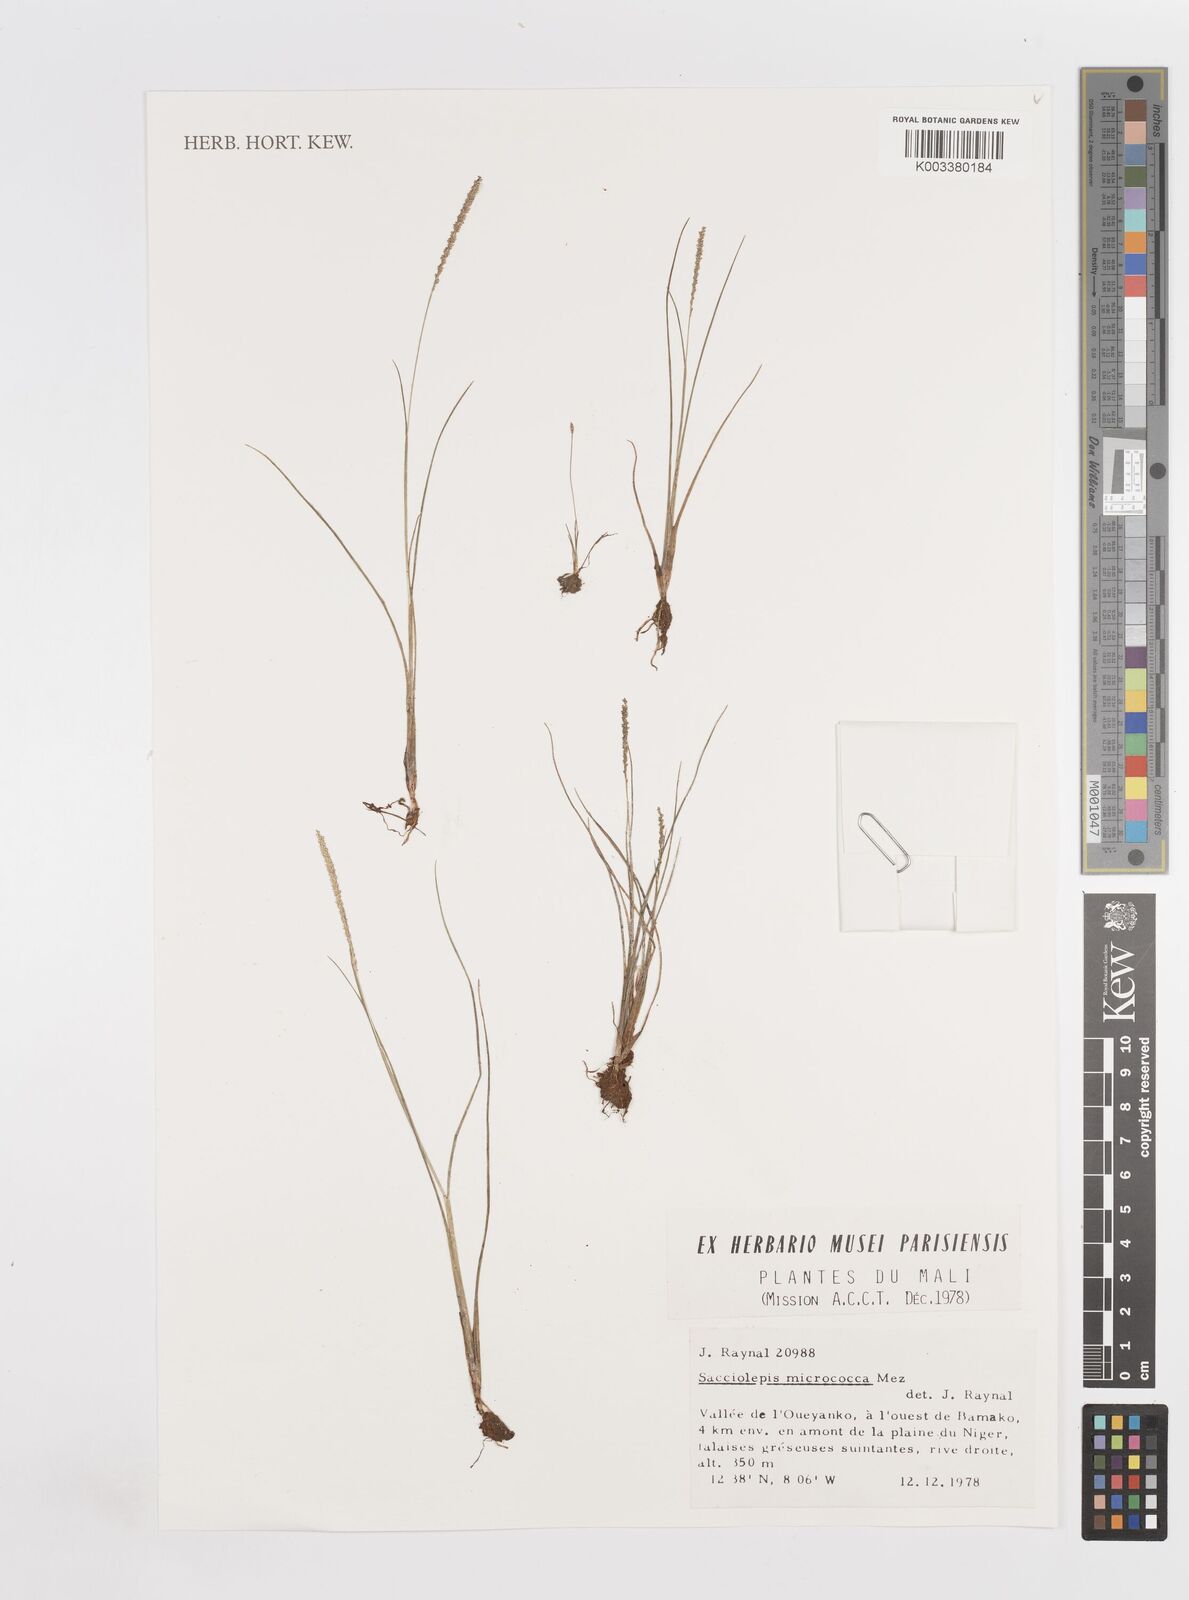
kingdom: Plantae
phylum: Tracheophyta
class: Liliopsida
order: Poales
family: Poaceae
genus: Sacciolepis
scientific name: Sacciolepis micrococca
